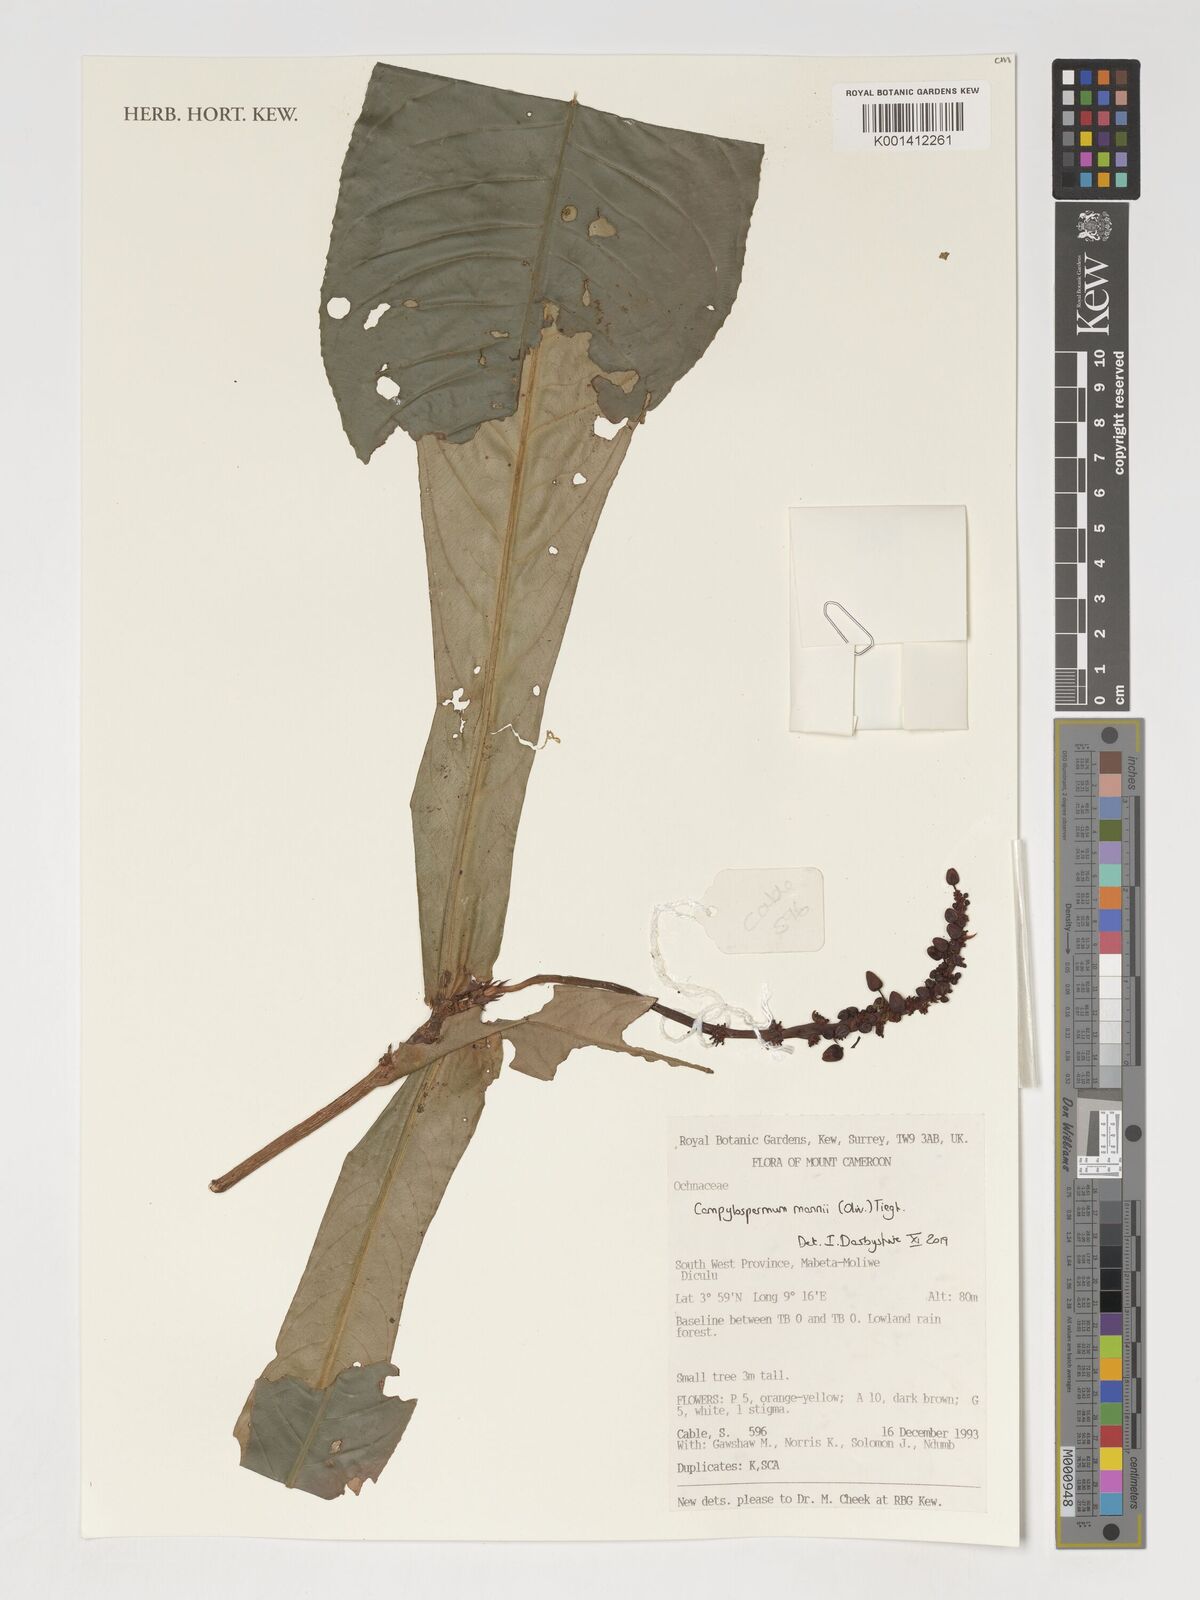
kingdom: Plantae
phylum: Tracheophyta
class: Magnoliopsida
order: Malpighiales
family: Ochnaceae
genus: Campylospermum
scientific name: Campylospermum mannii
